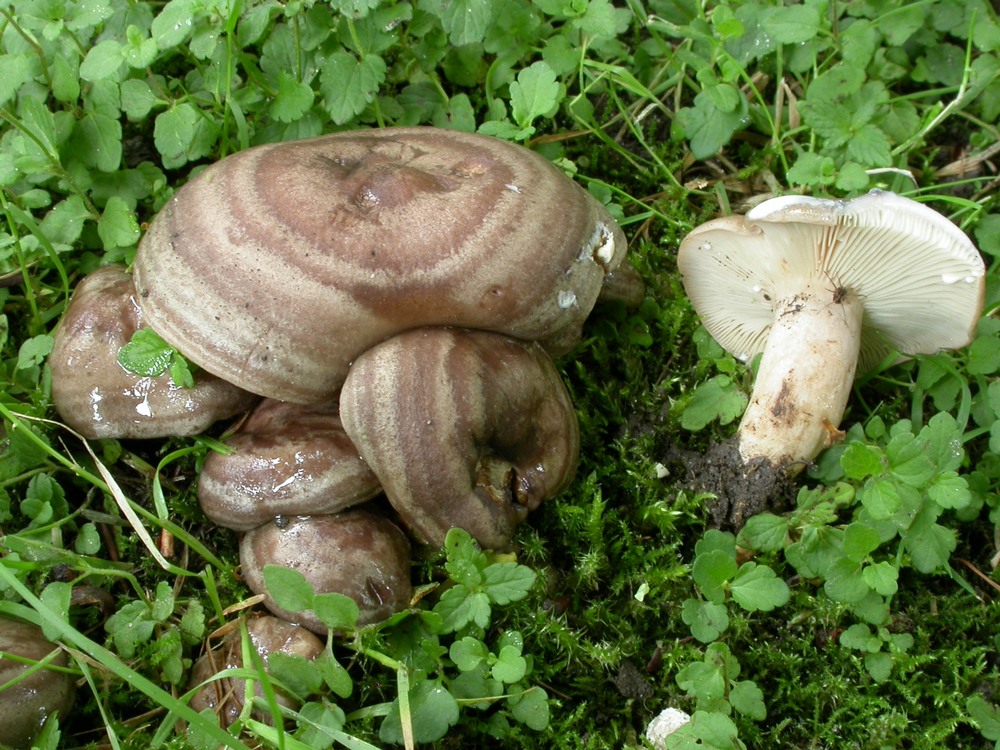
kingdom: Fungi
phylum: Basidiomycota
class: Agaricomycetes
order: Russulales
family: Russulaceae
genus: Lactarius
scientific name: Lactarius circellatus
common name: avnbøg-mælkehat
